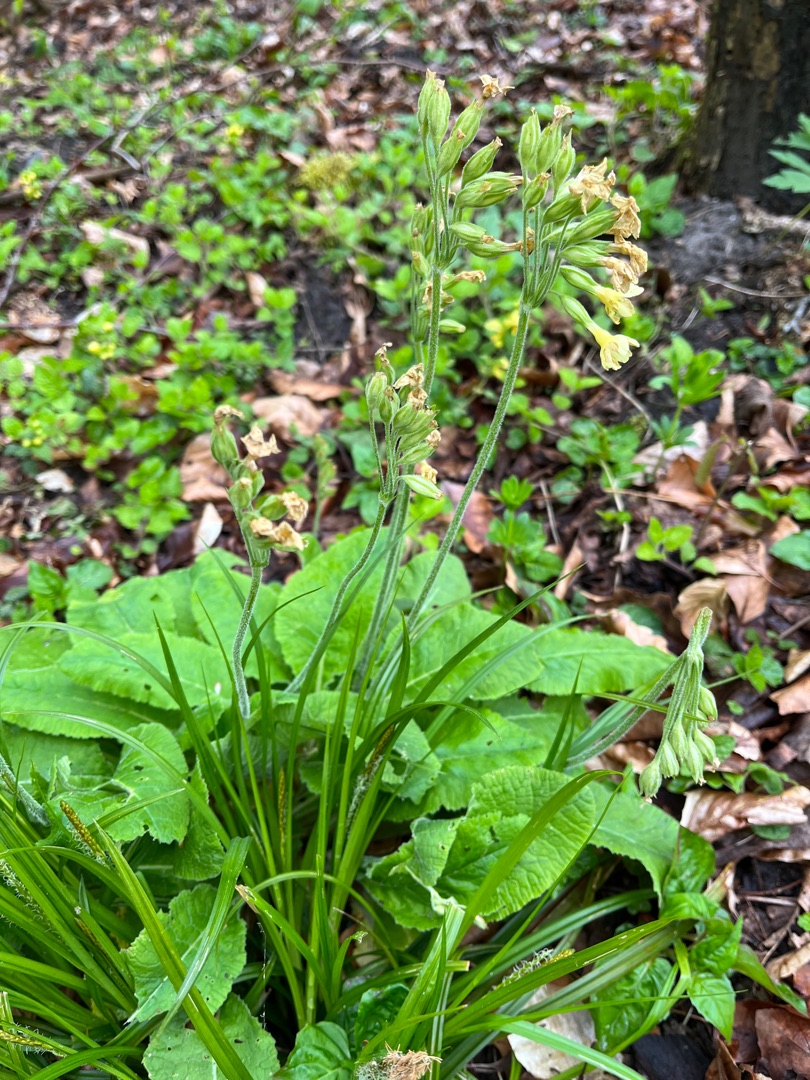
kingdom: Plantae
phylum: Tracheophyta
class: Magnoliopsida
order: Ericales
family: Primulaceae
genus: Primula
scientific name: Primula elatior
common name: Fladkravet kodriver
